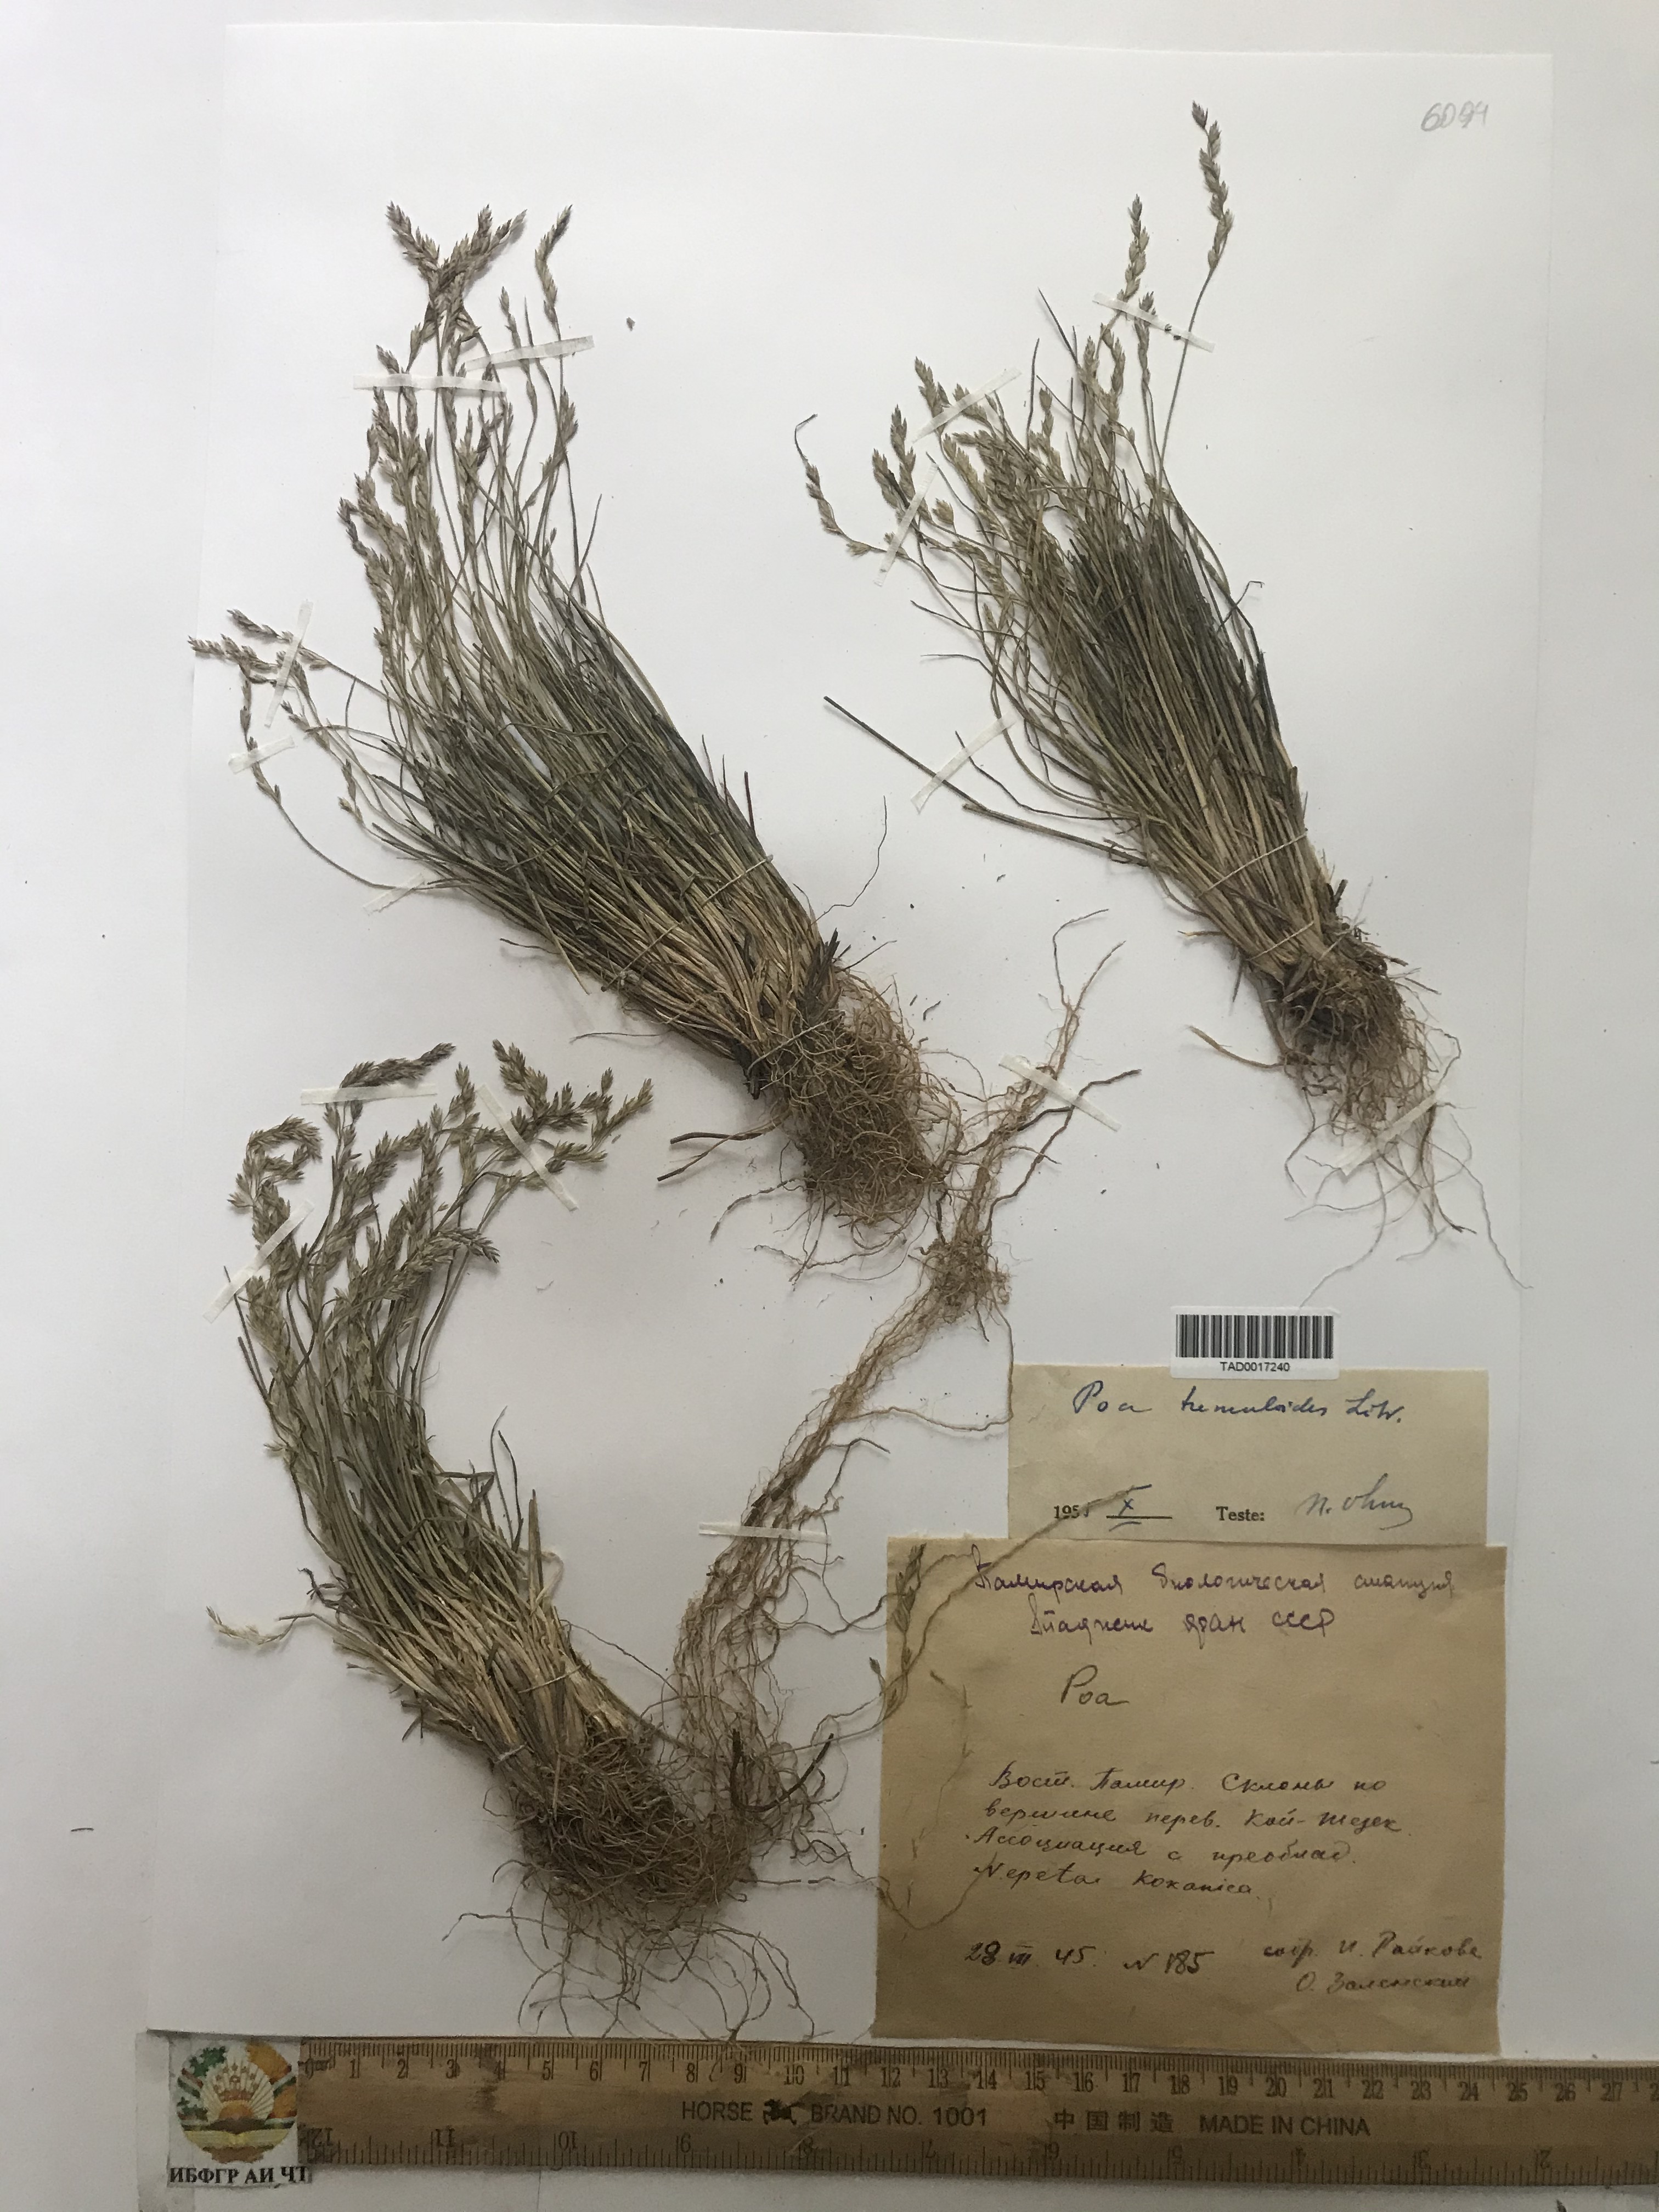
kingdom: Plantae
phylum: Tracheophyta
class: Liliopsida
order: Poales
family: Poaceae
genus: Poa
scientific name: Poa glauca
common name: Glaucous bluegrass
